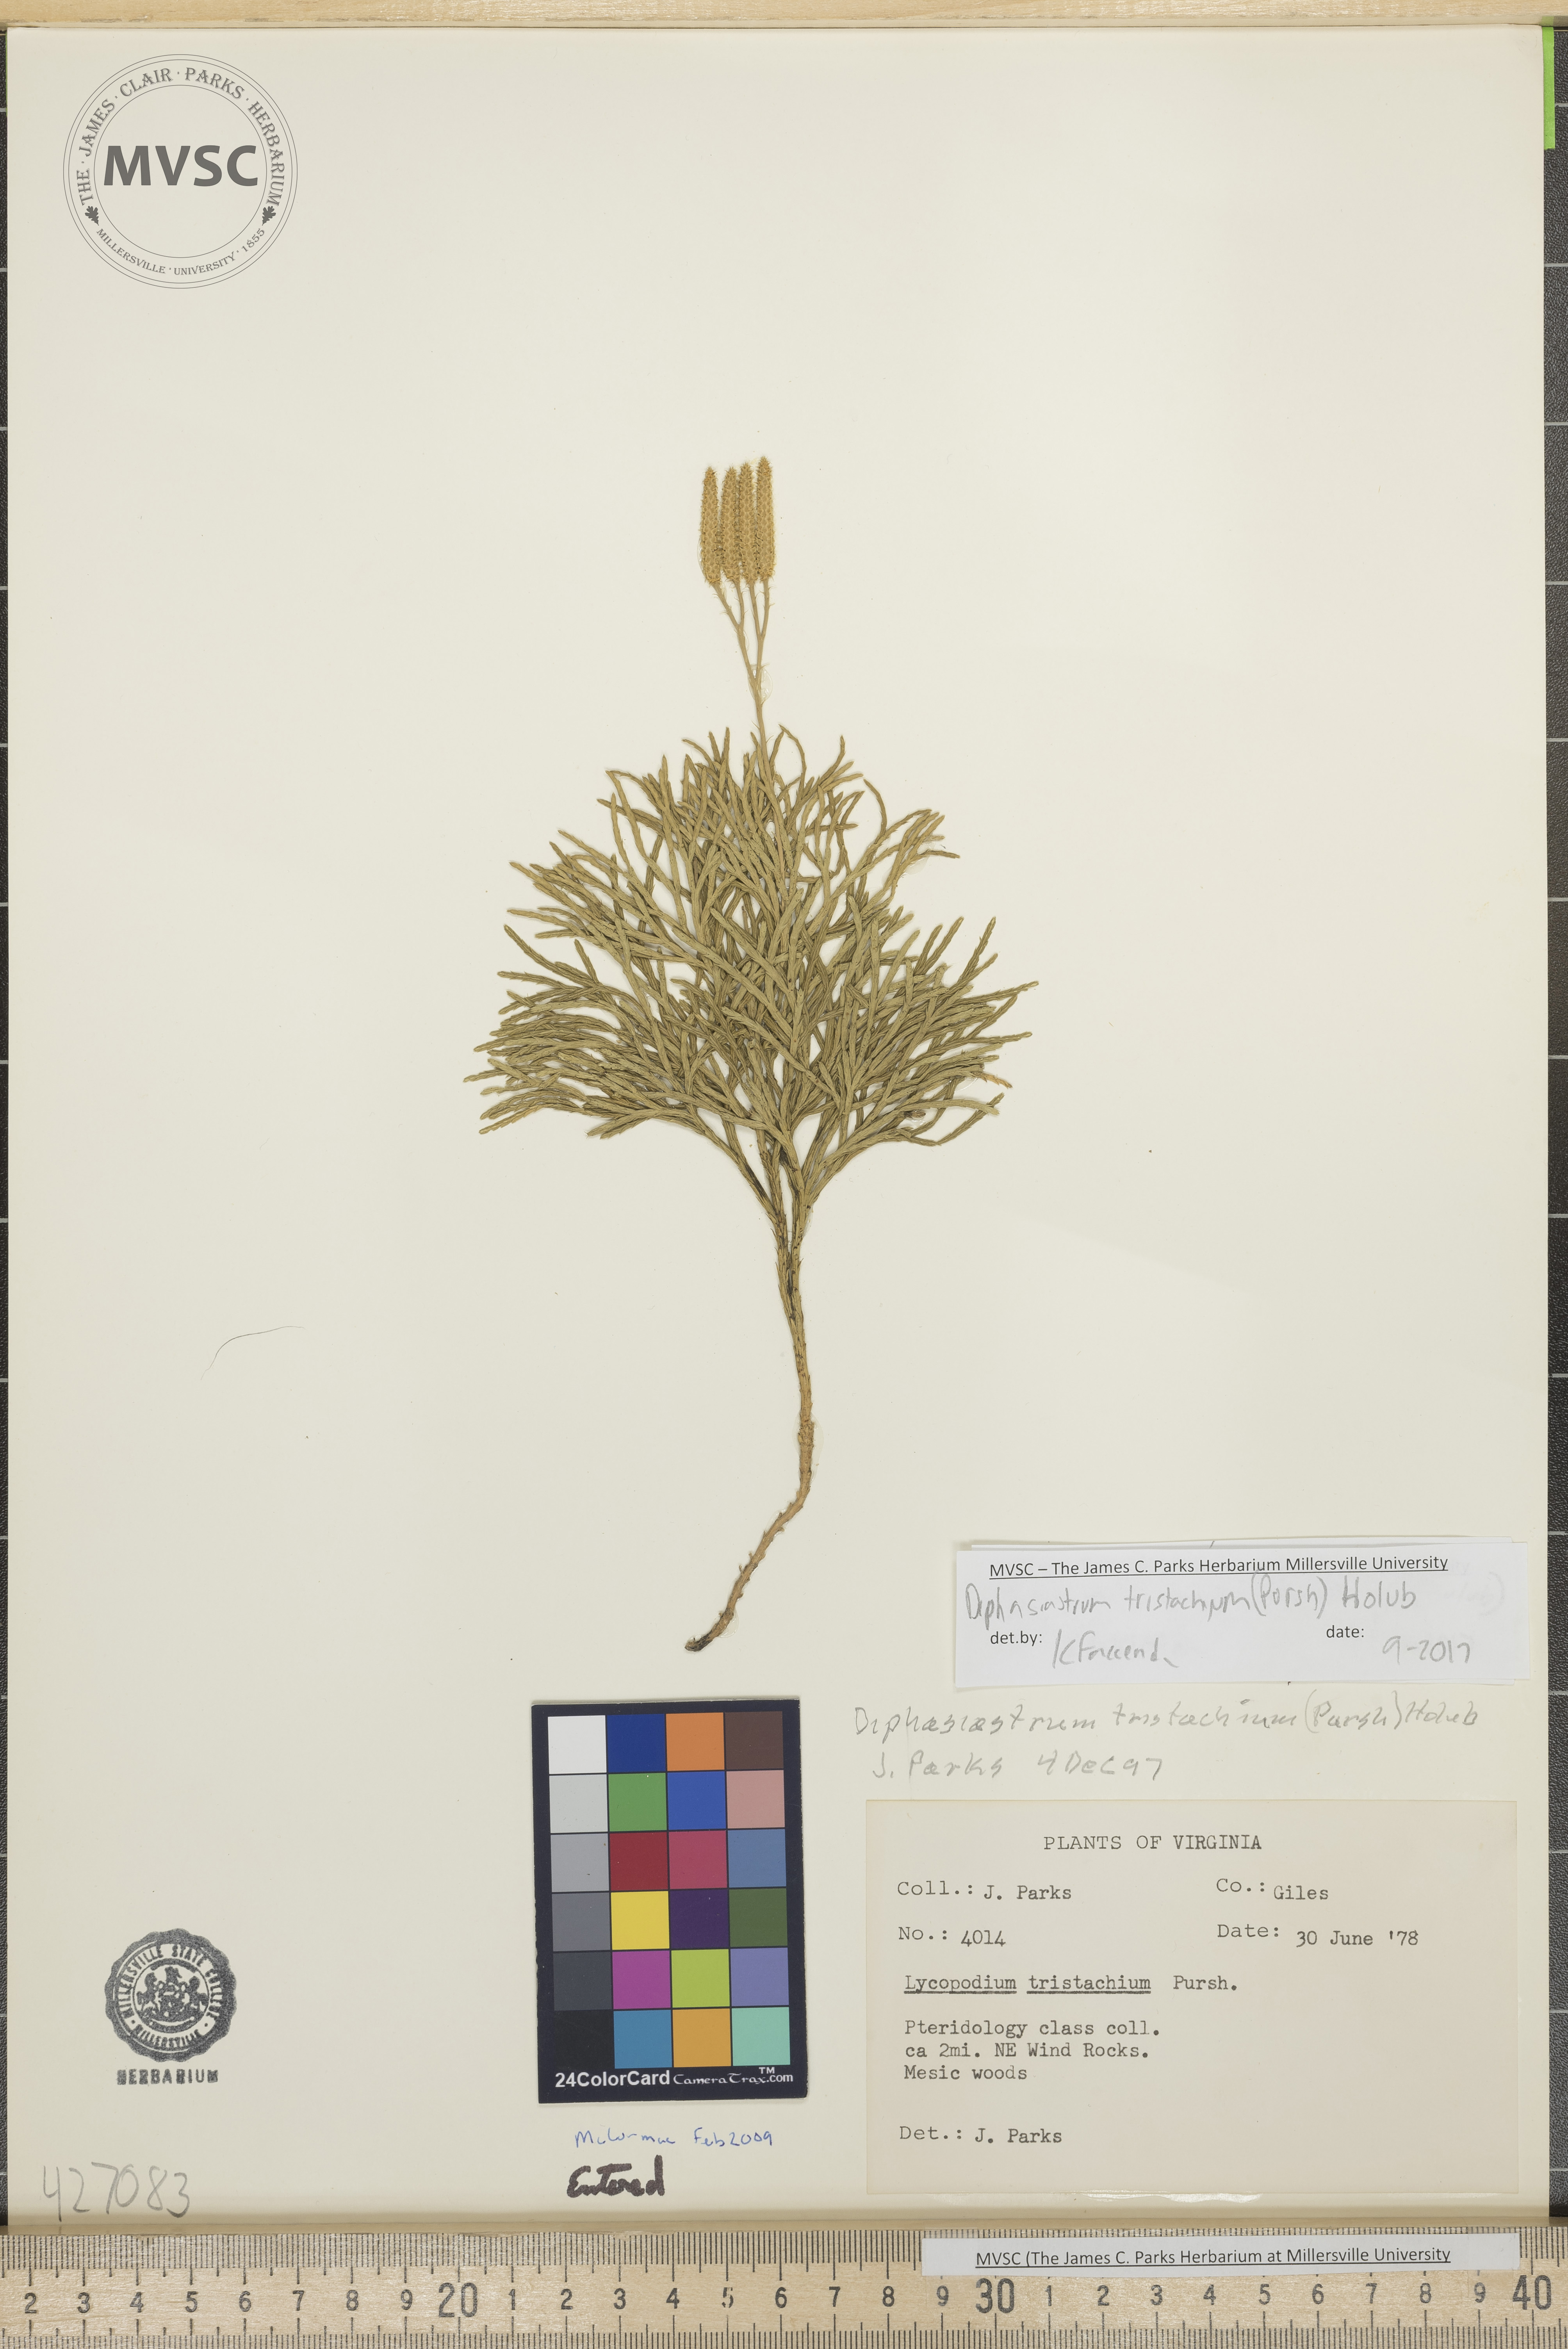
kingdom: Plantae
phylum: Tracheophyta
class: Lycopodiopsida
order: Lycopodiales
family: Lycopodiaceae
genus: Diphasiastrum
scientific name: Diphasiastrum tristachyum
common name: Blue ground-cedar
